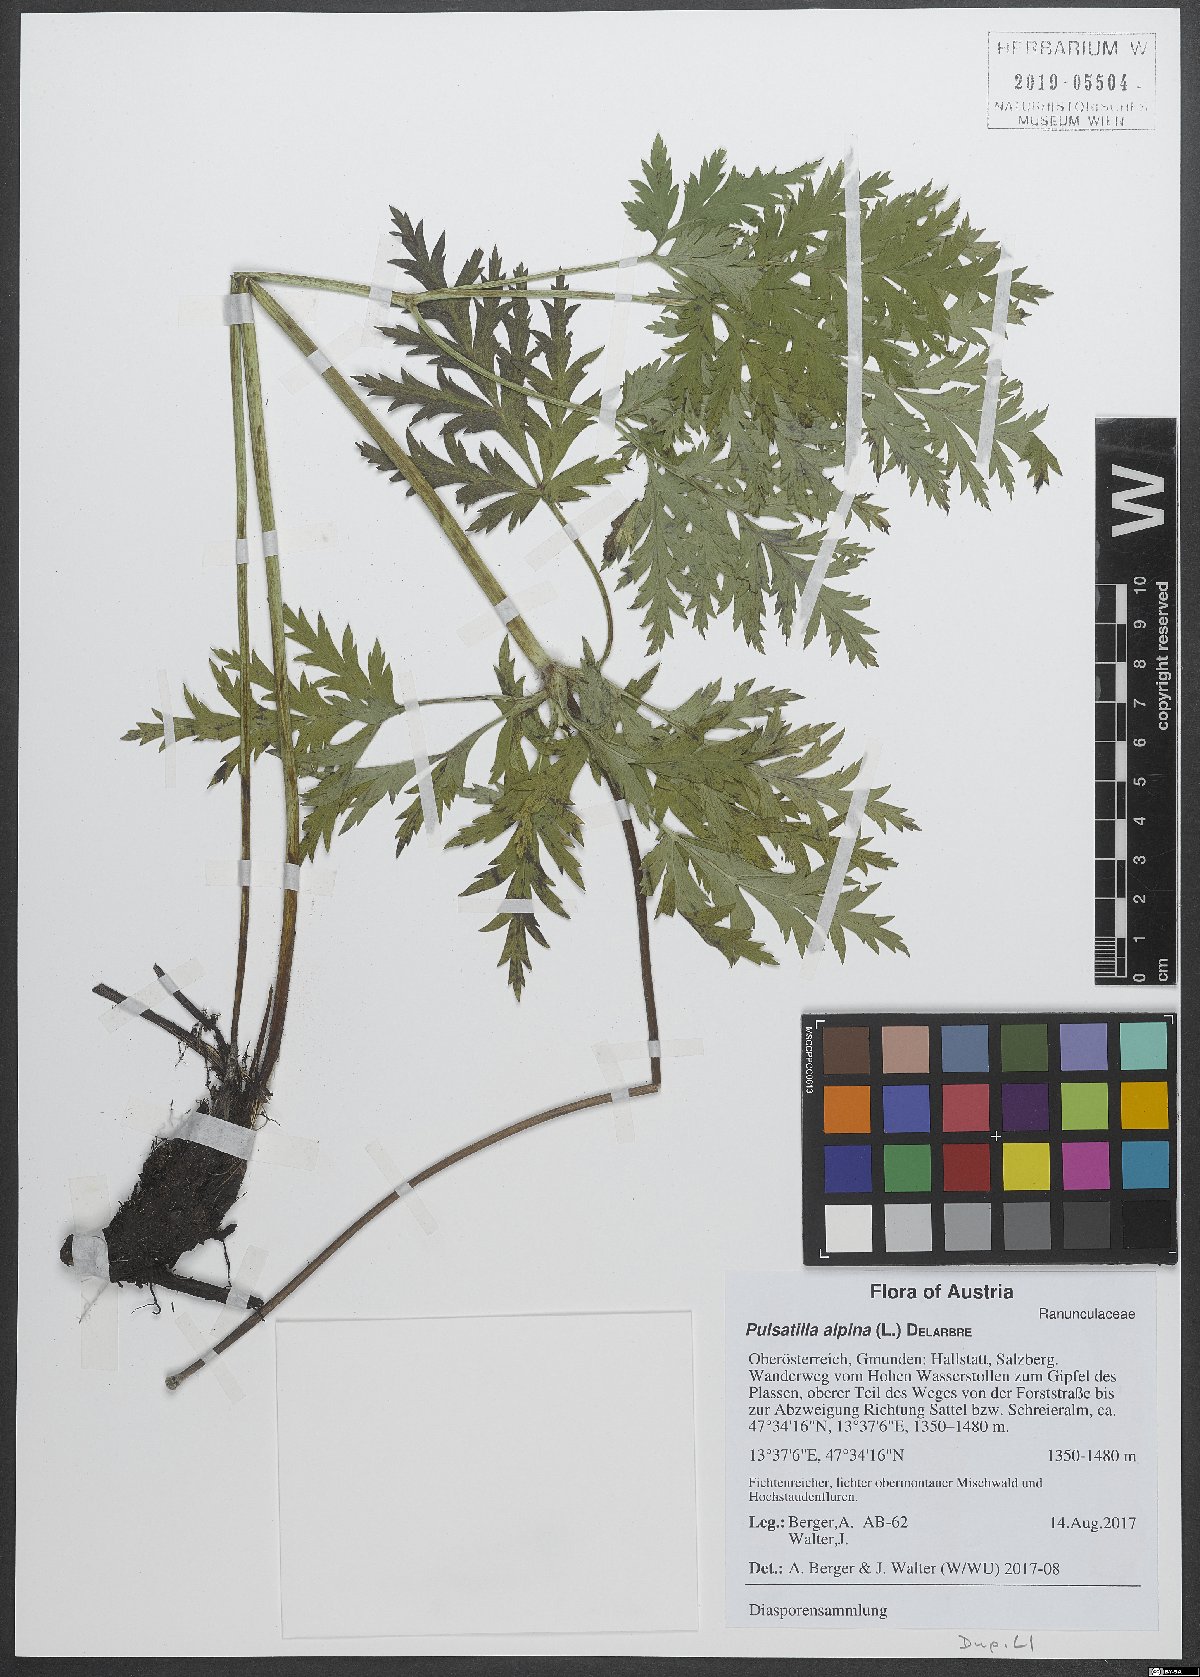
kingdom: Plantae
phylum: Tracheophyta
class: Magnoliopsida
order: Ranunculales
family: Ranunculaceae
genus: Pulsatilla
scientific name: Pulsatilla alpina
